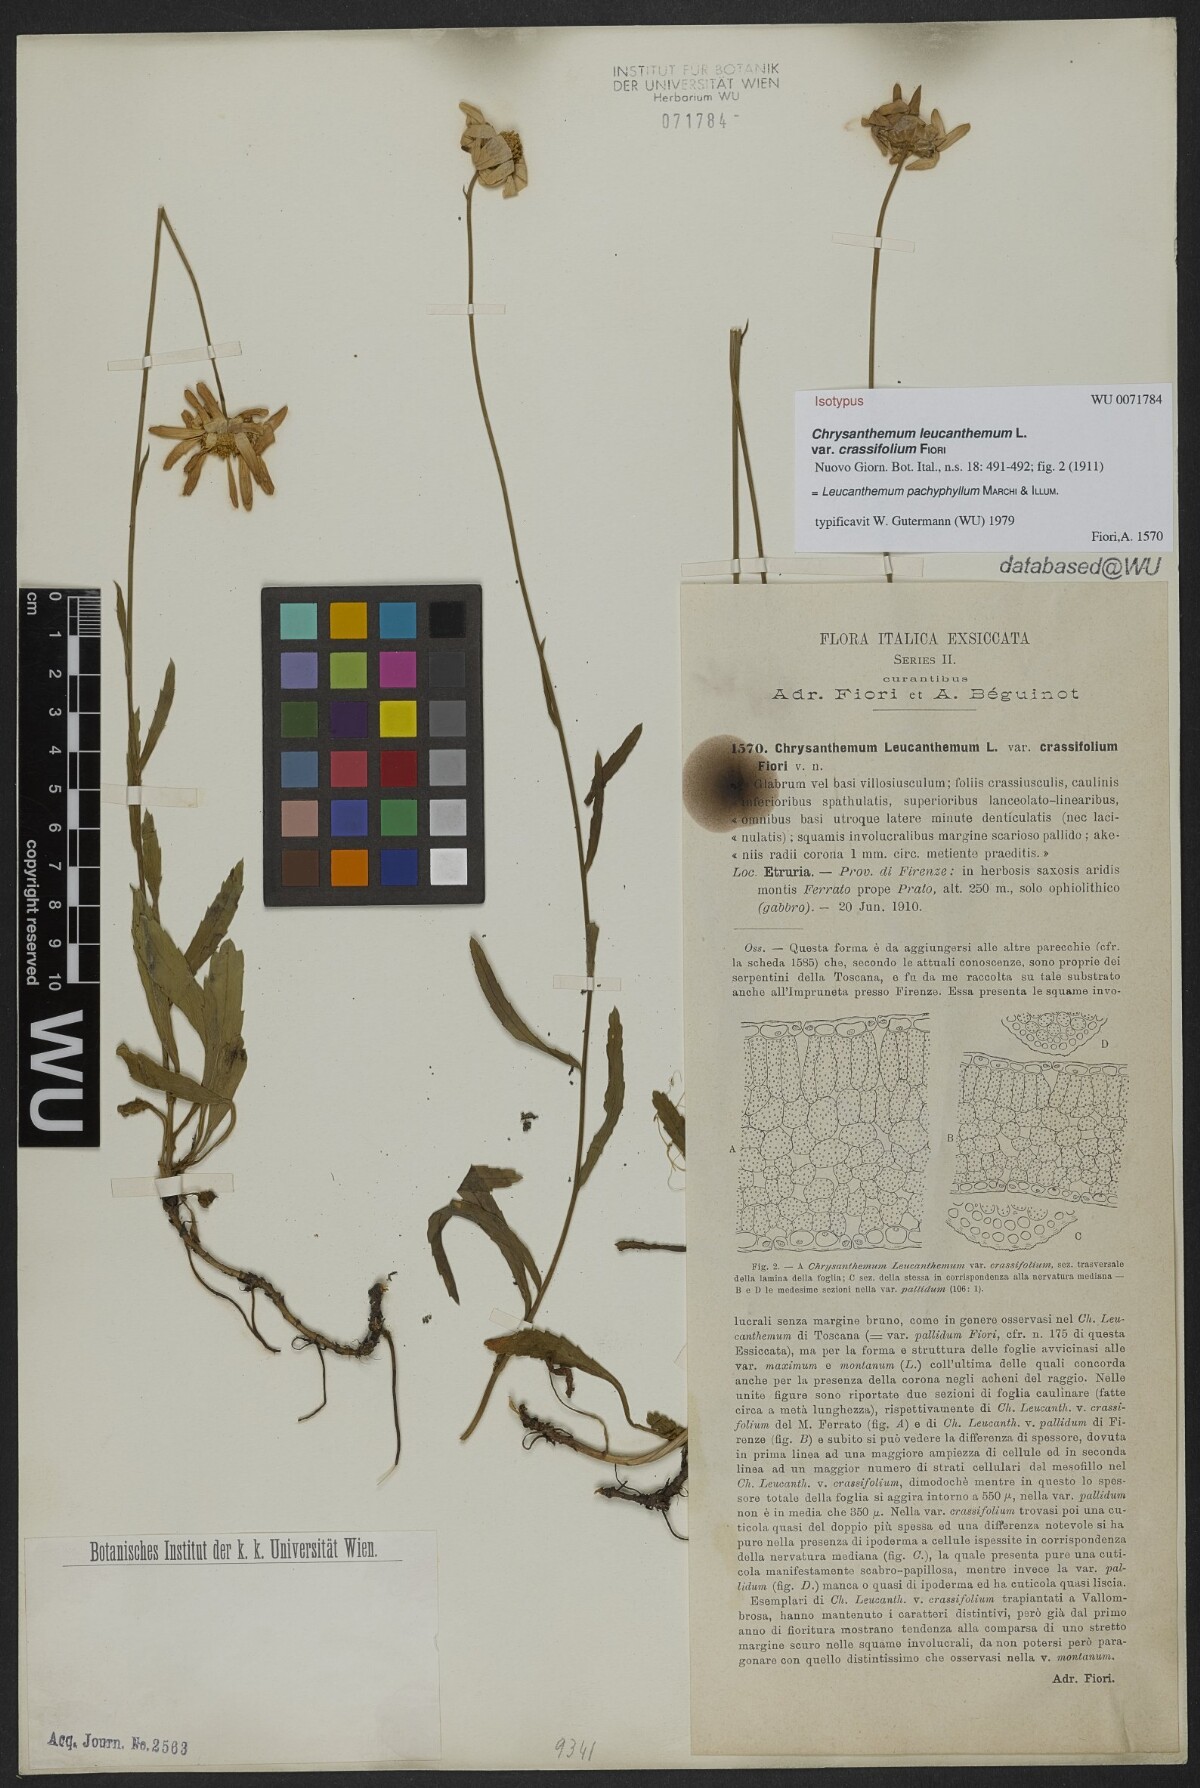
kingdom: Plantae
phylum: Tracheophyta
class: Magnoliopsida
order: Asterales
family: Asteraceae
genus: Leucanthemum
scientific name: Leucanthemum pachyphyllum
